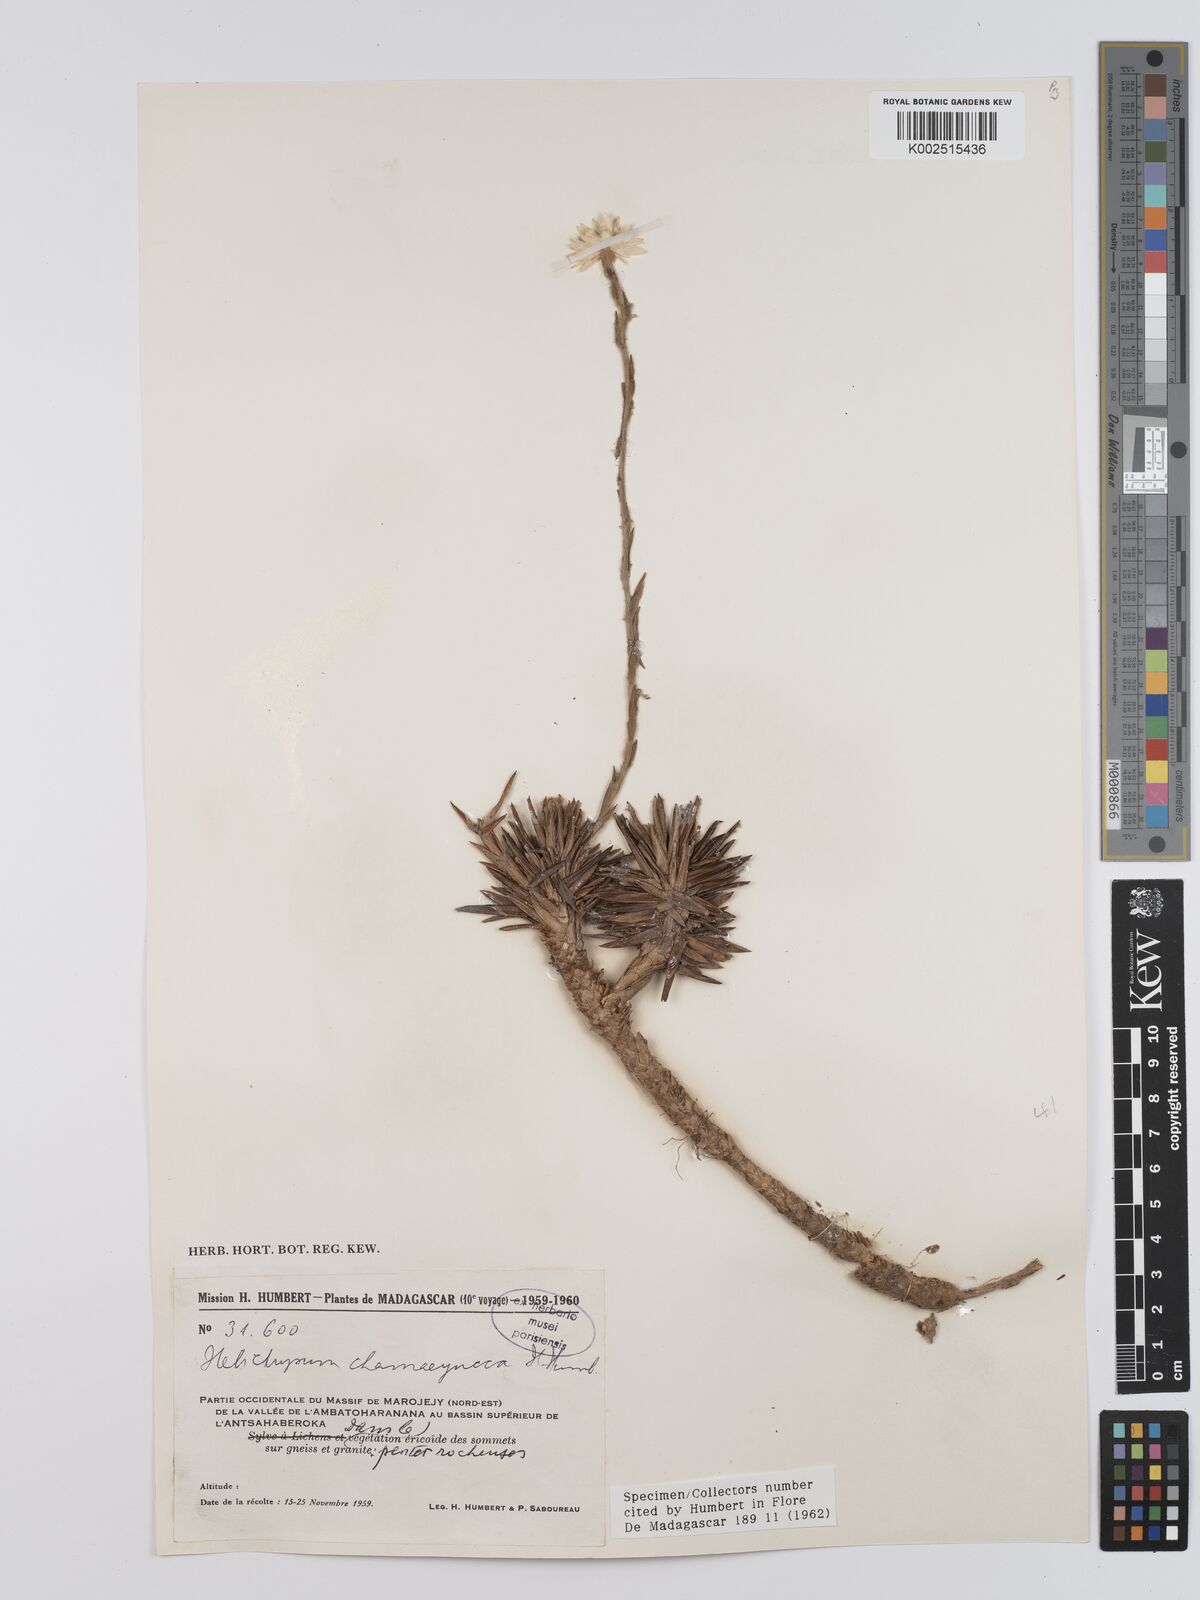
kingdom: Plantae
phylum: Tracheophyta
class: Magnoliopsida
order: Asterales
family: Asteraceae
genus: Helichrysum
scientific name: Helichrysum chamaeyucca
